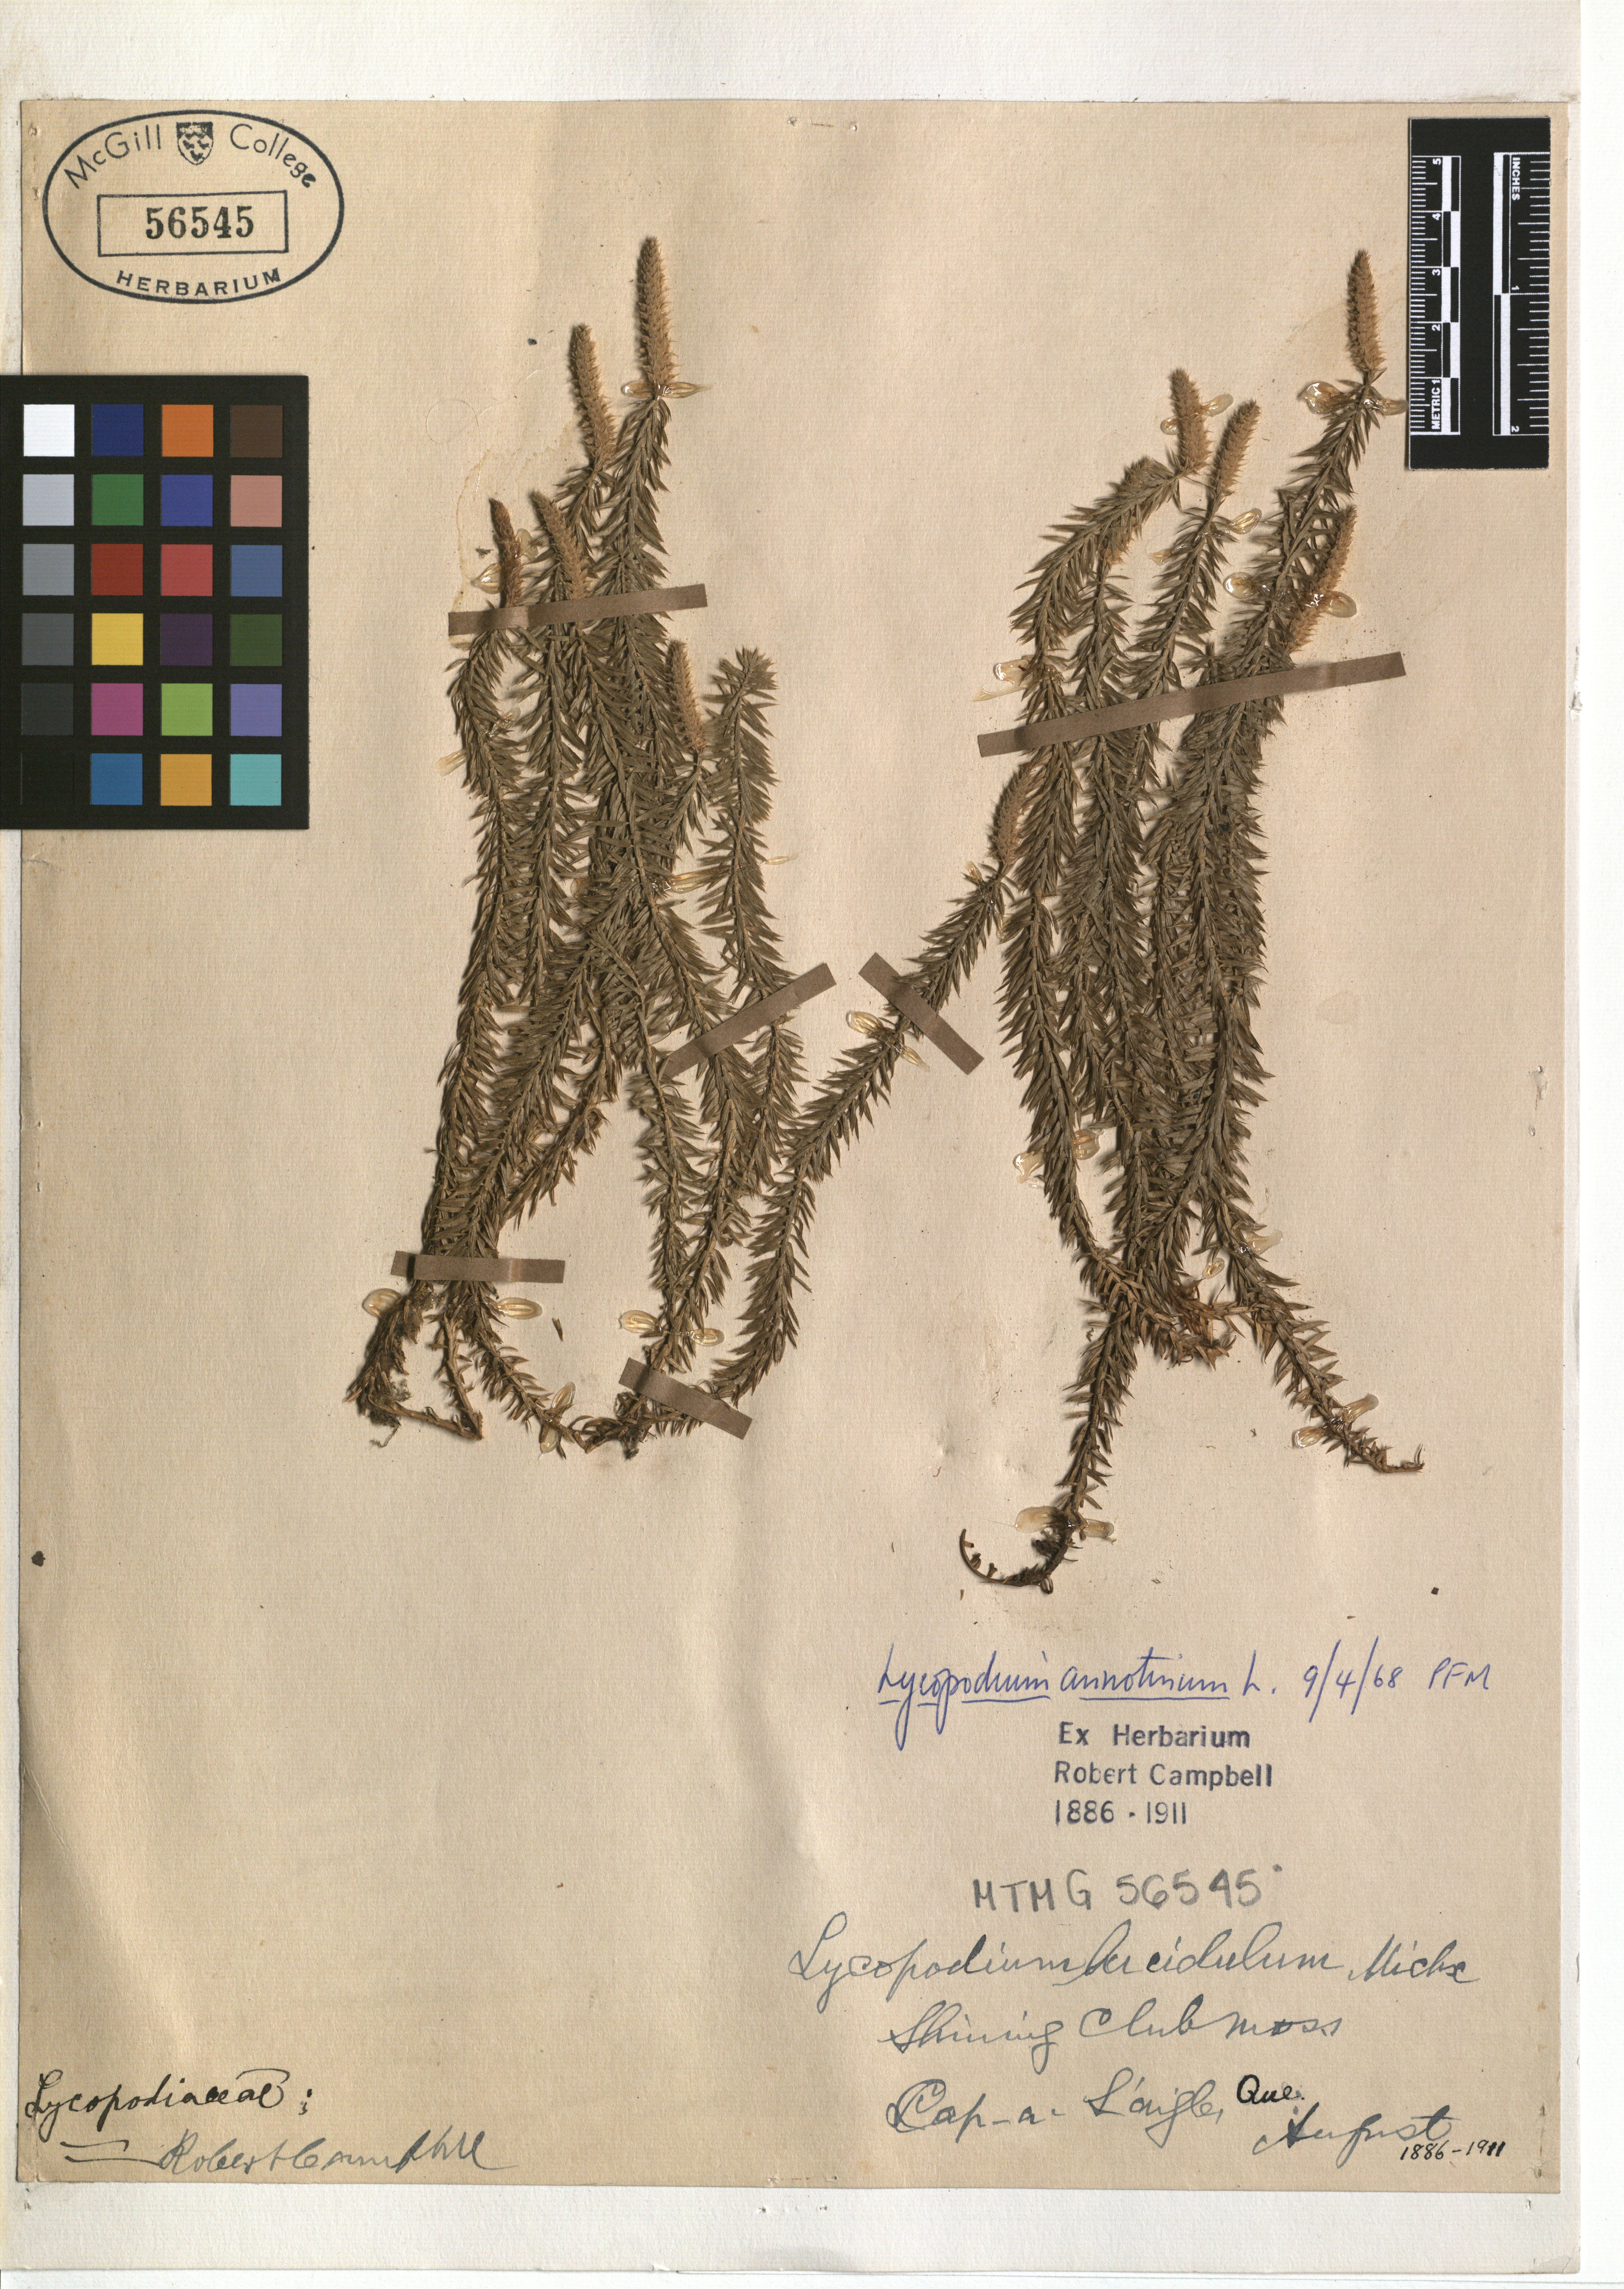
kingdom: Plantae
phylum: Tracheophyta
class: Lycopodiopsida
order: Lycopodiales
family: Lycopodiaceae
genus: Spinulum
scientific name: Spinulum annotinum
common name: Interrupted club-moss
